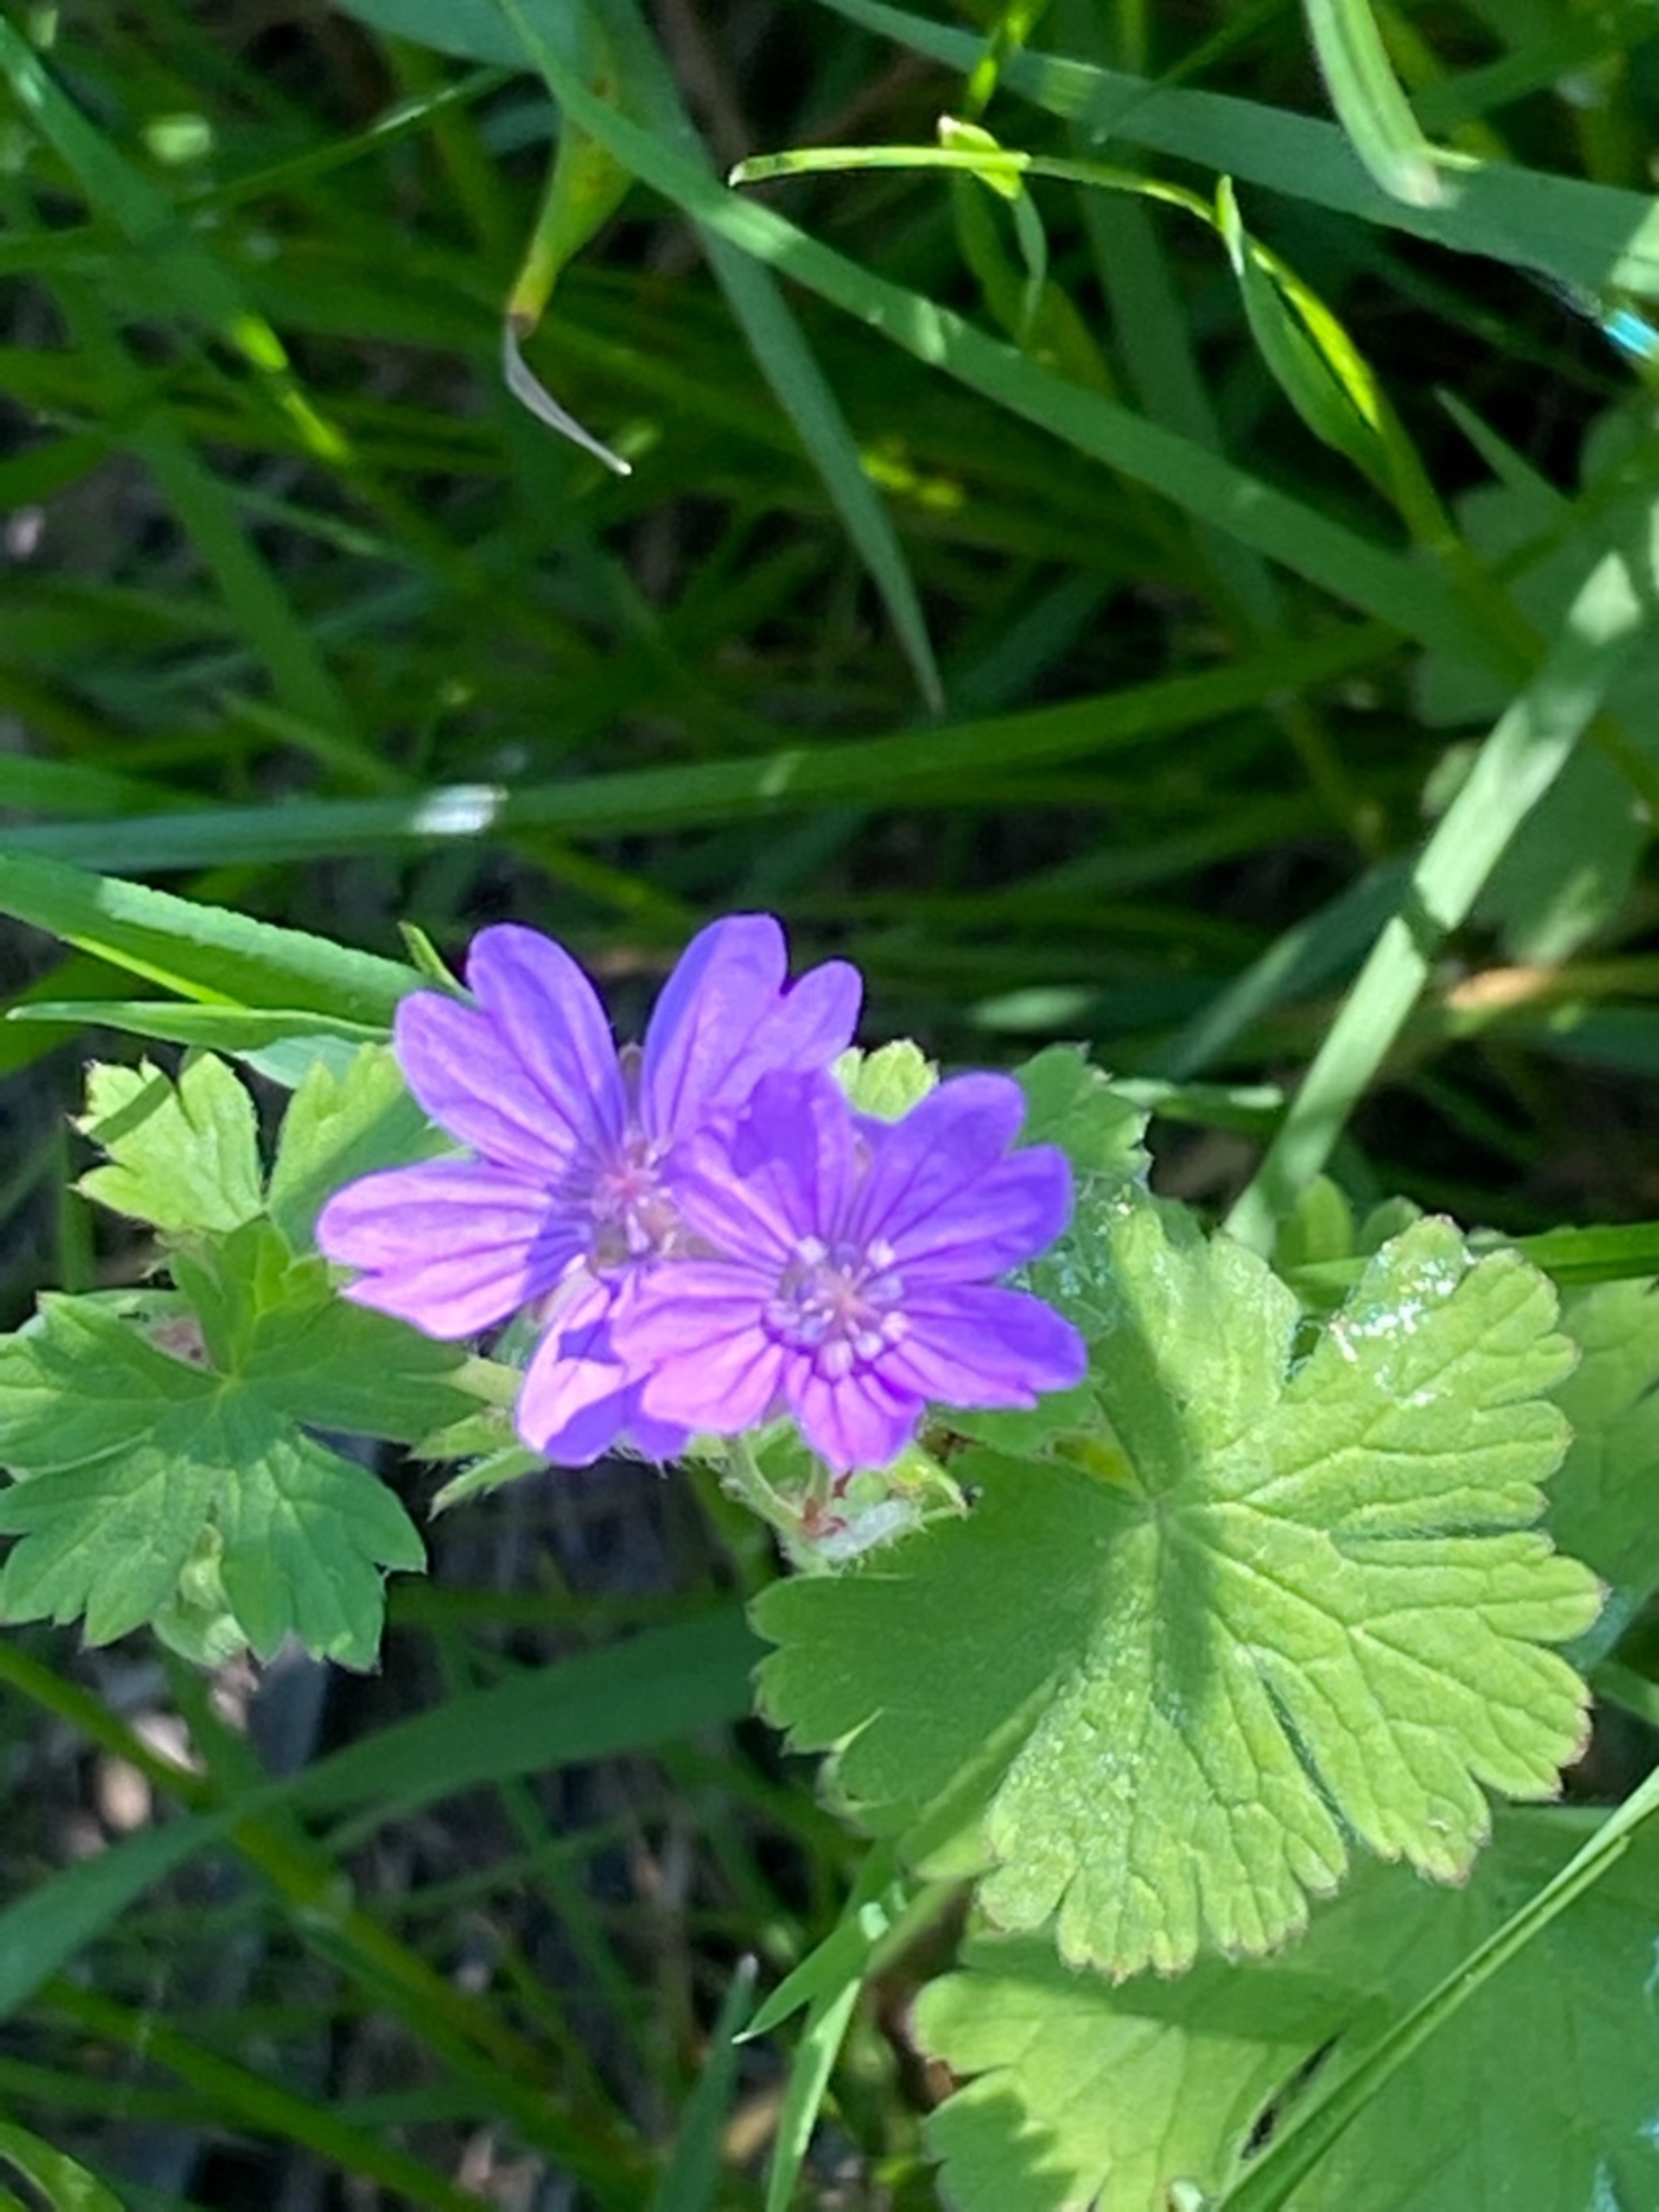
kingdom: Plantae
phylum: Tracheophyta
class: Magnoliopsida
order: Geraniales
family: Geraniaceae
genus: Geranium
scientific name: Geranium pyrenaicum
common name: Pyrenæisk storkenæb
